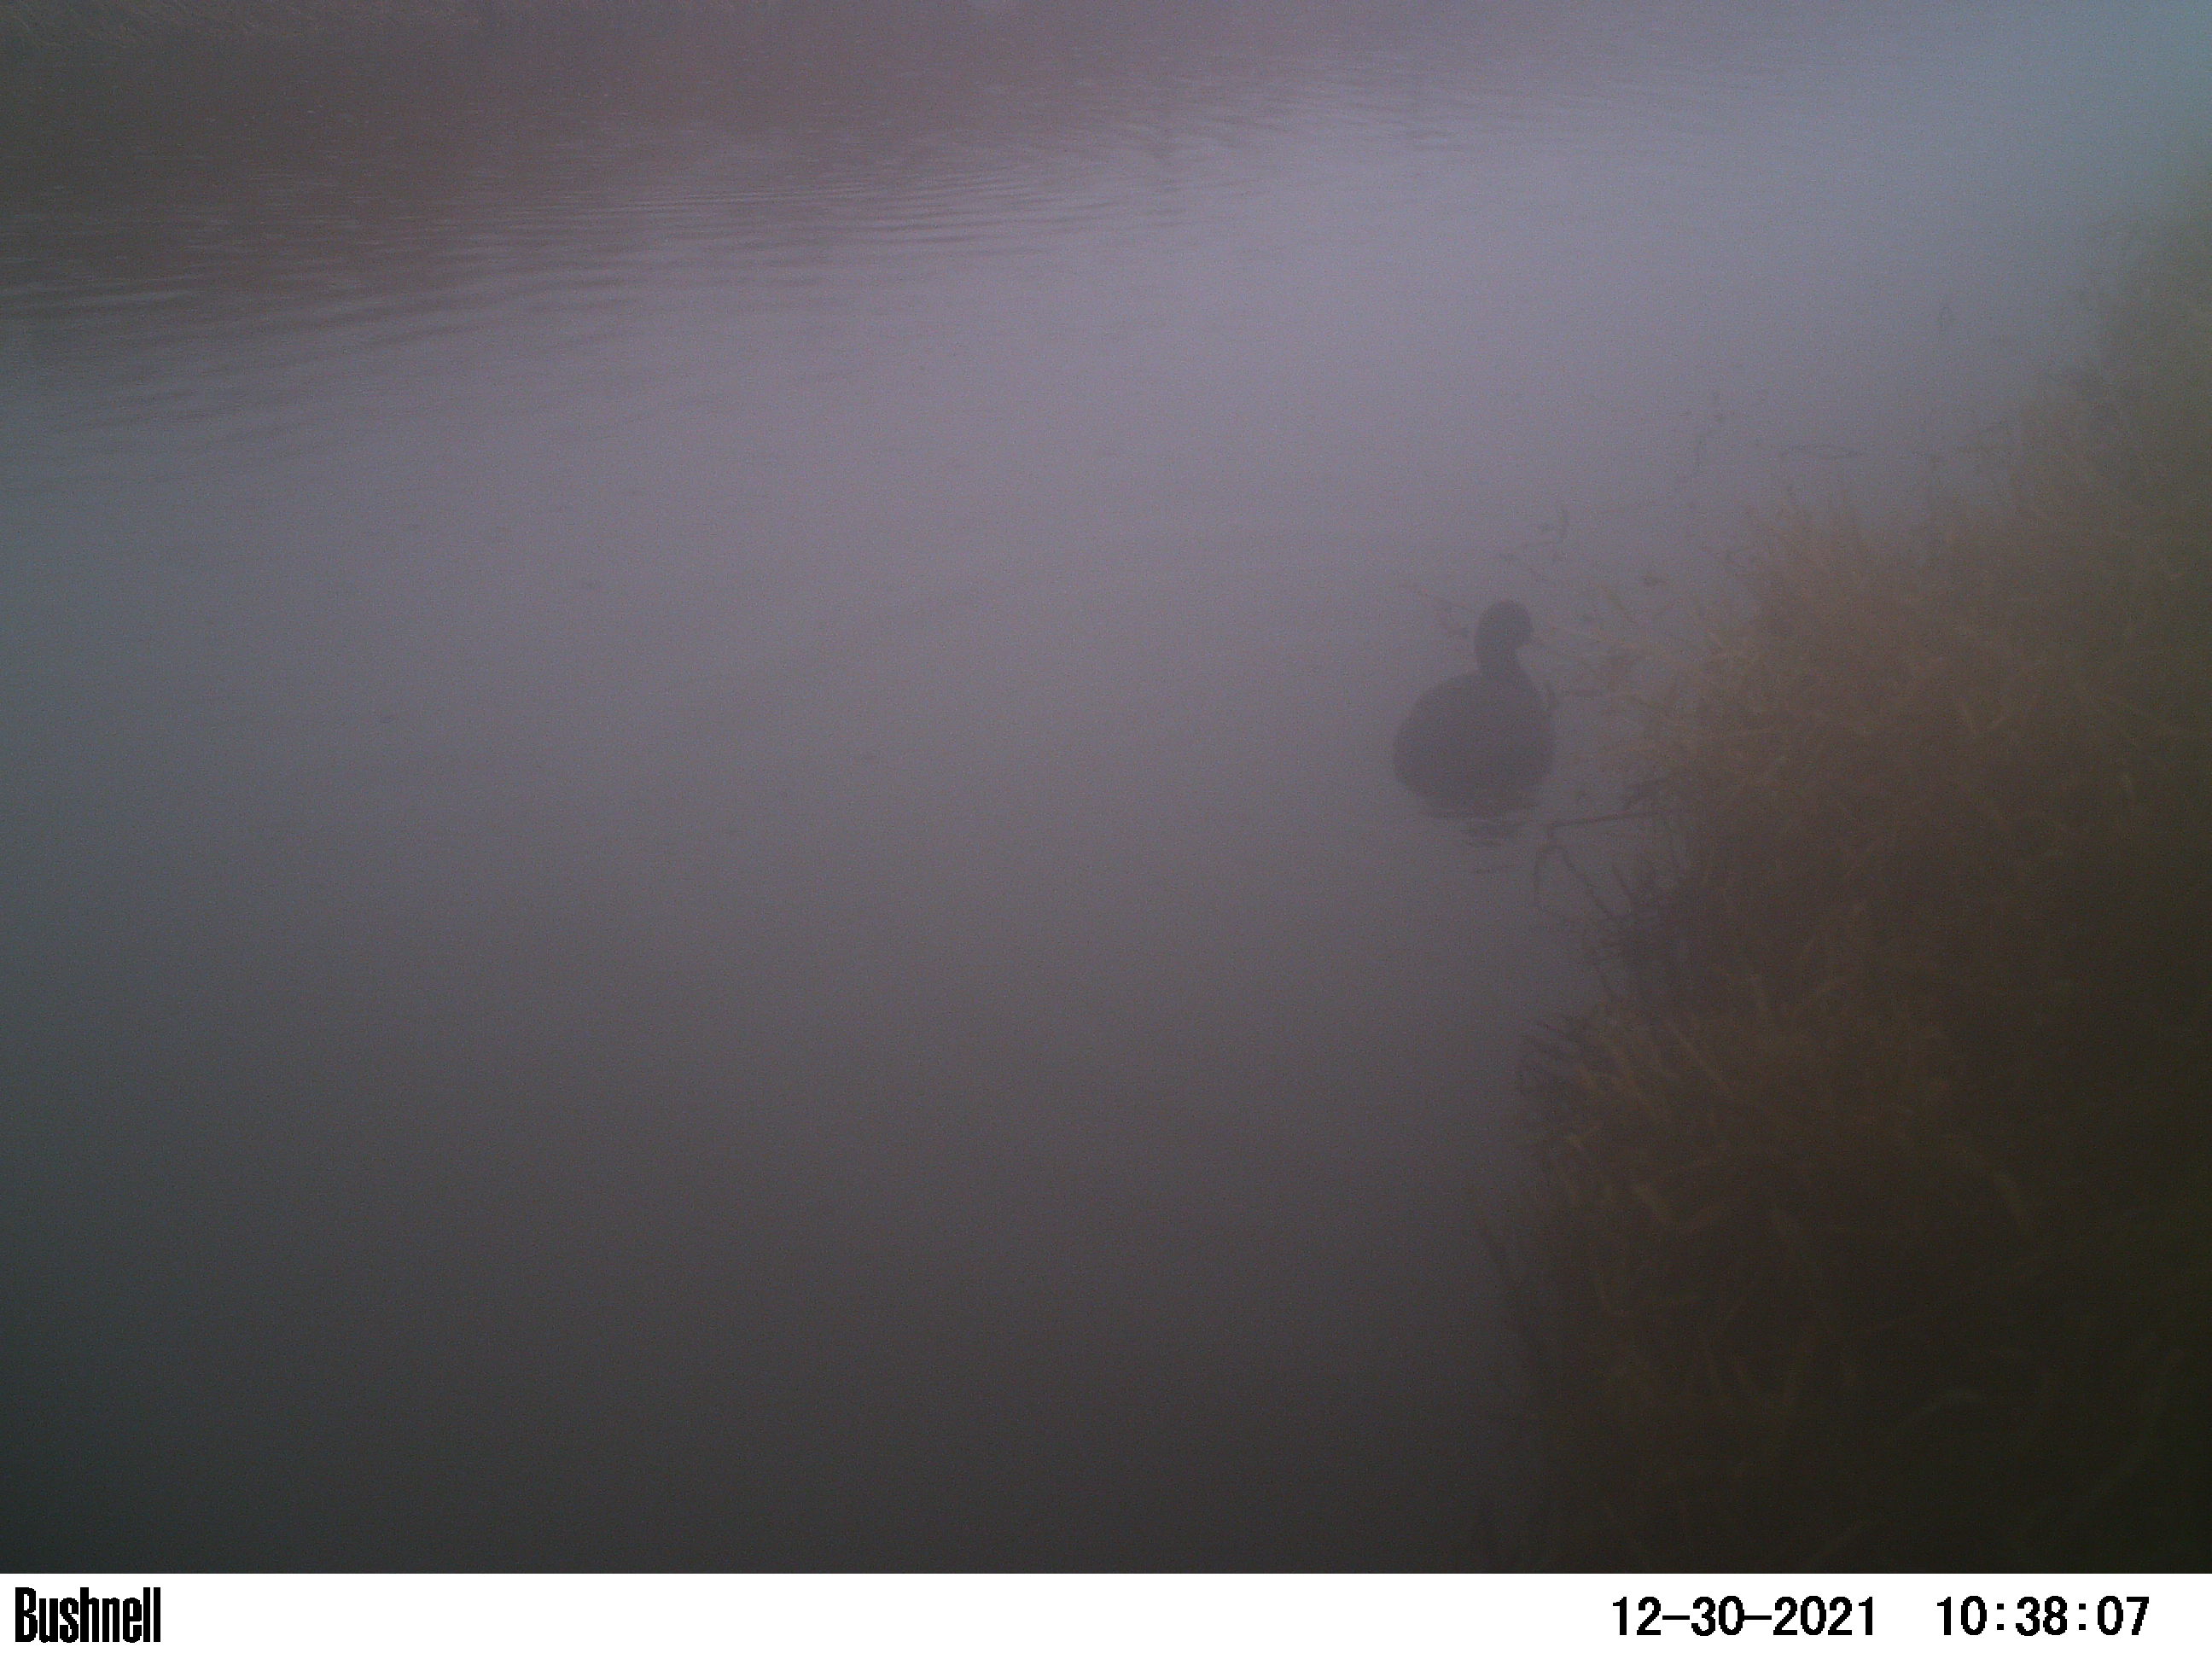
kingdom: Animalia
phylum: Chordata
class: Aves
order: Gruiformes
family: Rallidae
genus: Fulica
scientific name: Fulica atra
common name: Eurasian coot
